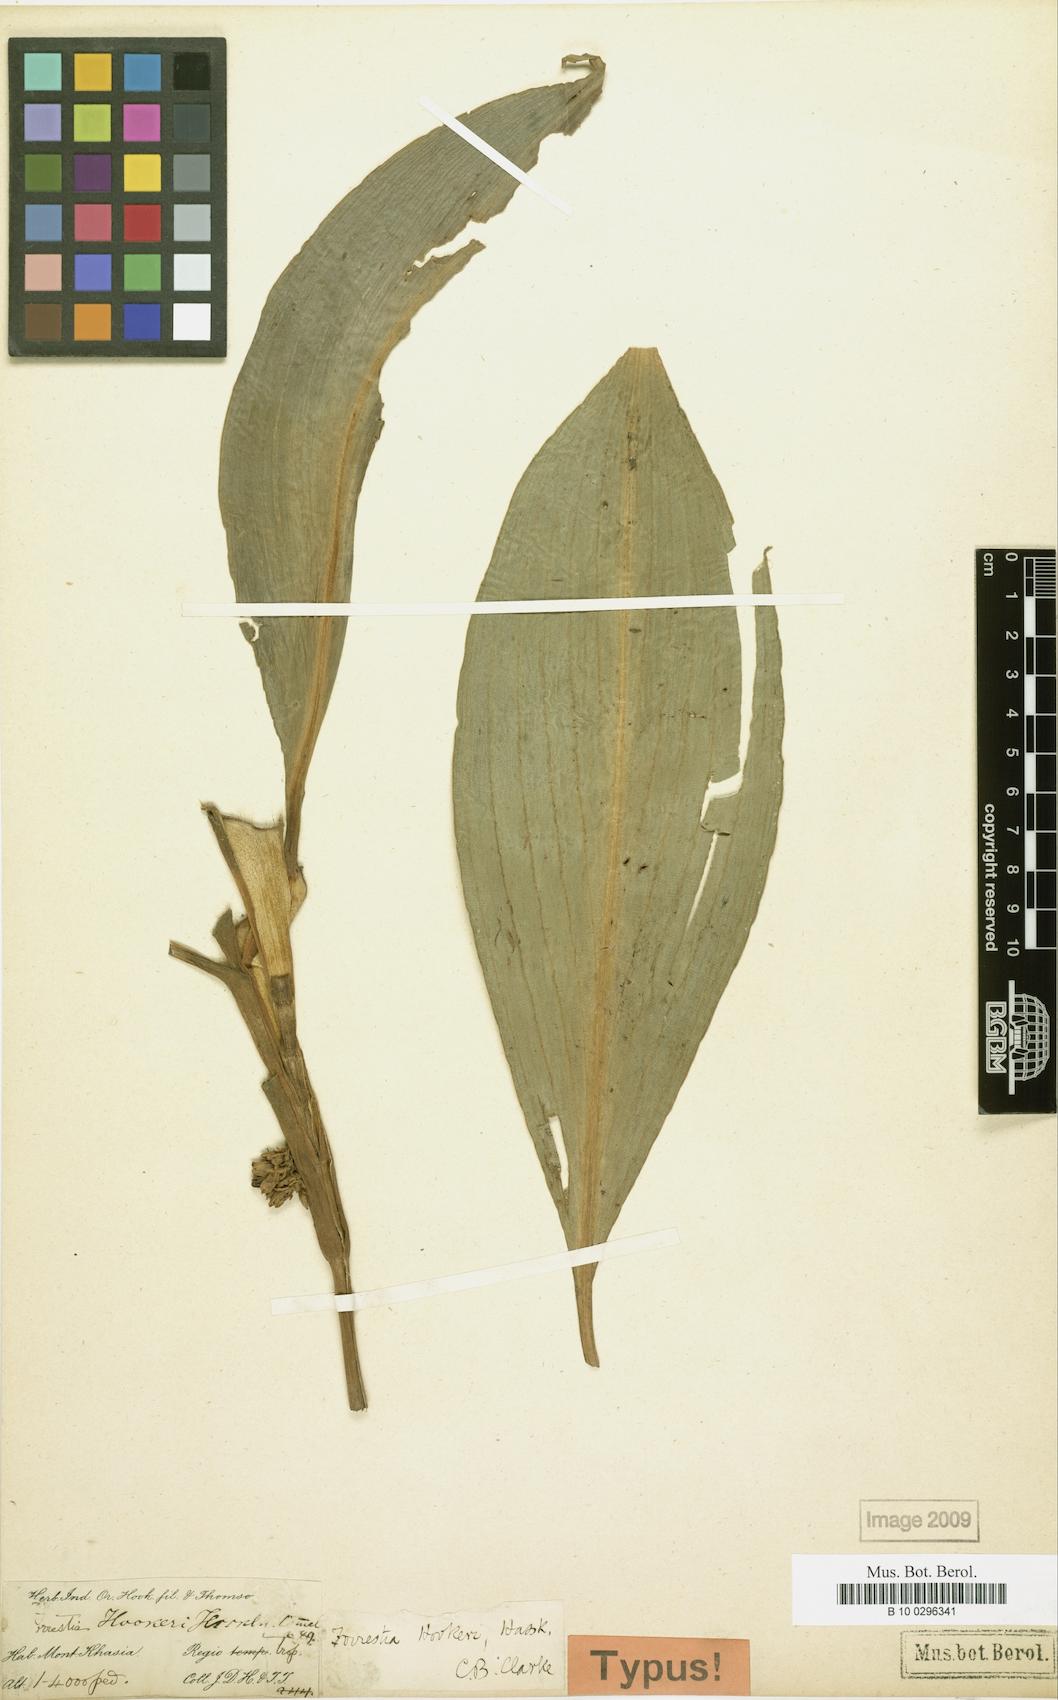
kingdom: Plantae
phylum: Tracheophyta
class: Liliopsida
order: Commelinales
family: Commelinaceae
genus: Amischotolype
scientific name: Amischotolype
